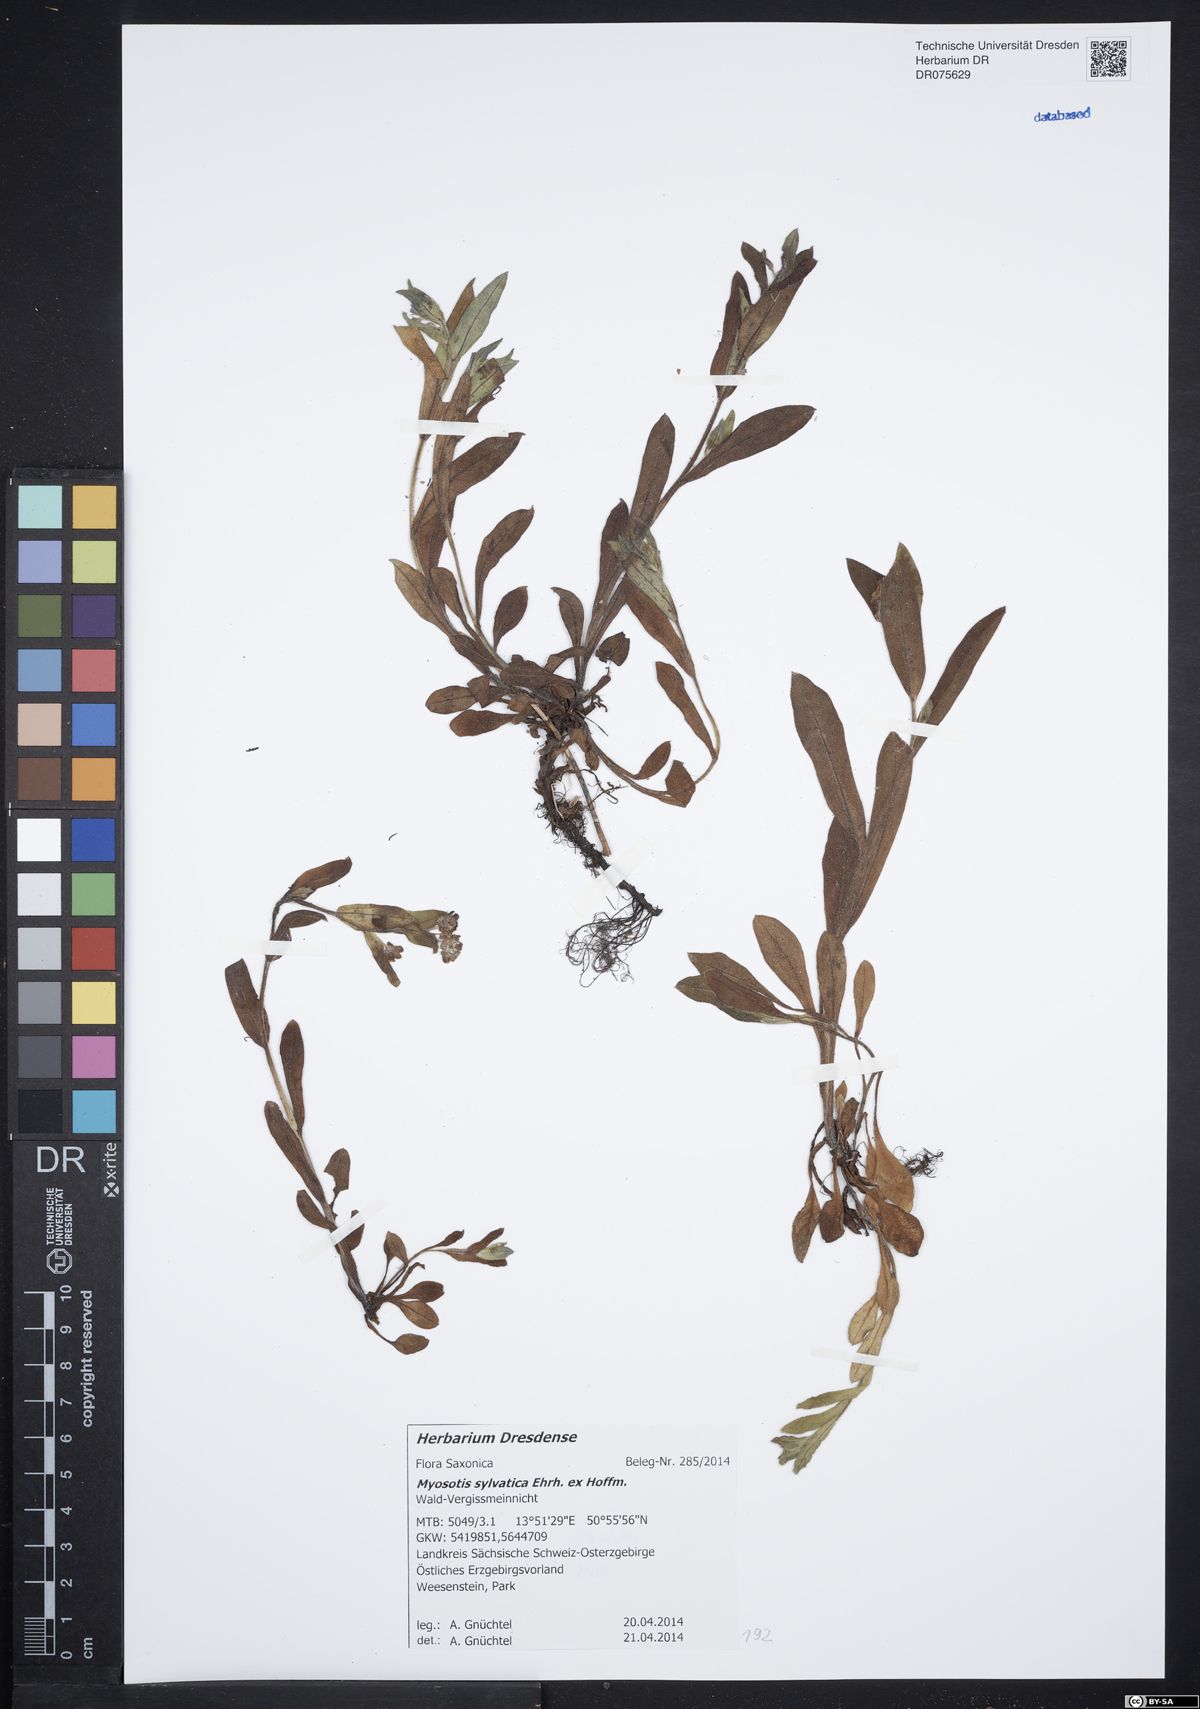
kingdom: Plantae
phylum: Tracheophyta
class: Magnoliopsida
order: Boraginales
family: Boraginaceae
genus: Myosotis
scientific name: Myosotis sylvatica
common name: Wood forget-me-not
